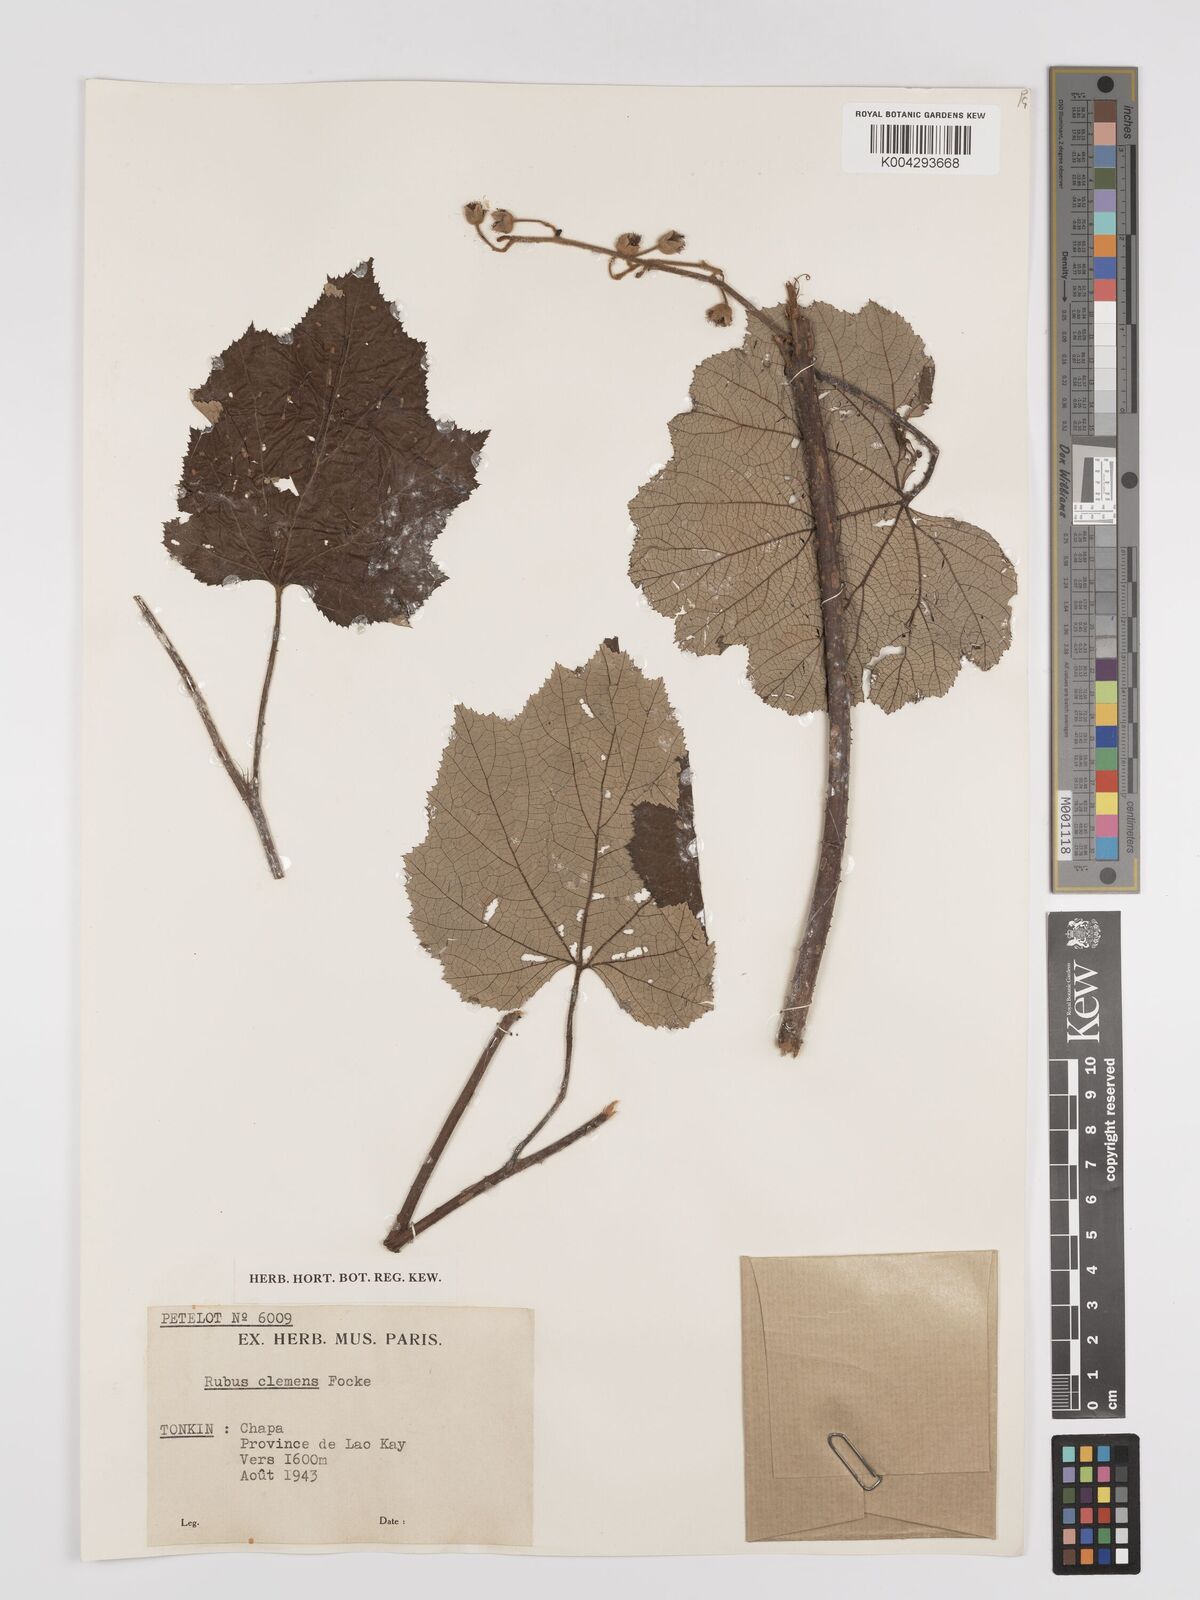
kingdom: Plantae
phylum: Tracheophyta
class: Magnoliopsida
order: Rosales
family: Rosaceae
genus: Rubus
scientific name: Rubus setchuenensis
